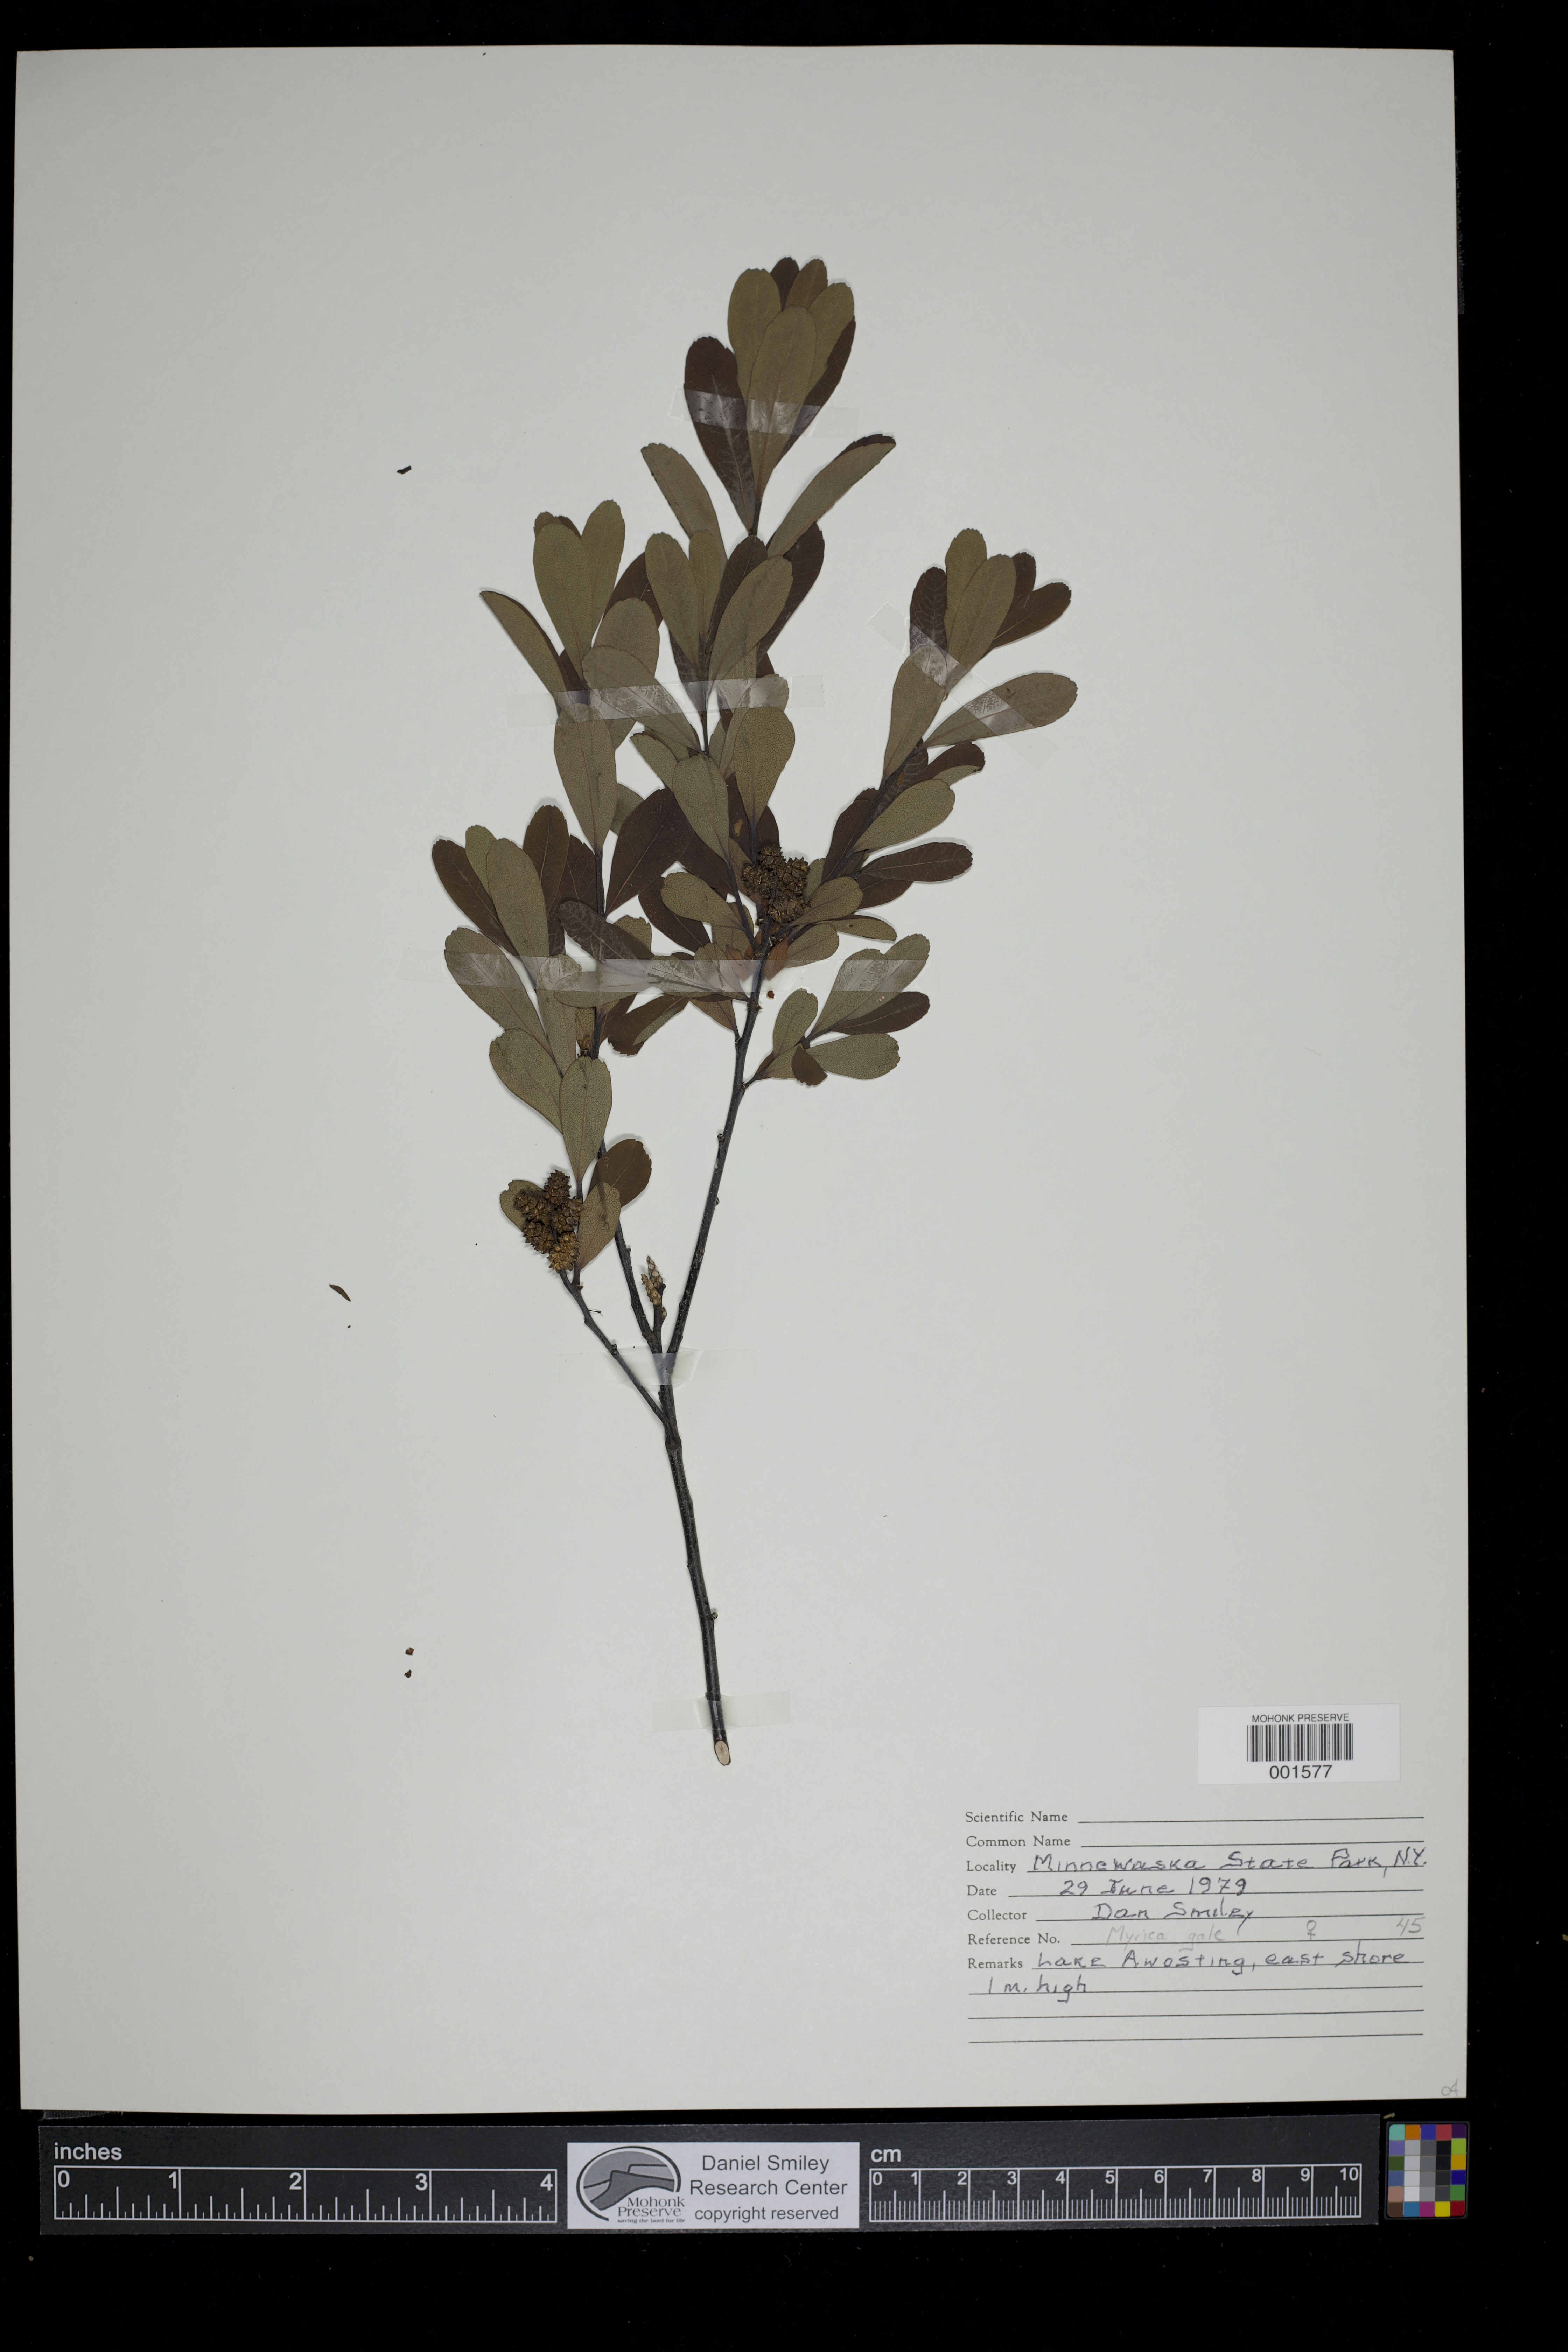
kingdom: Plantae
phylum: Tracheophyta
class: Magnoliopsida
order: Fagales
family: Myricaceae
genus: Myrica
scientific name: Myrica gale
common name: Sweet gale
